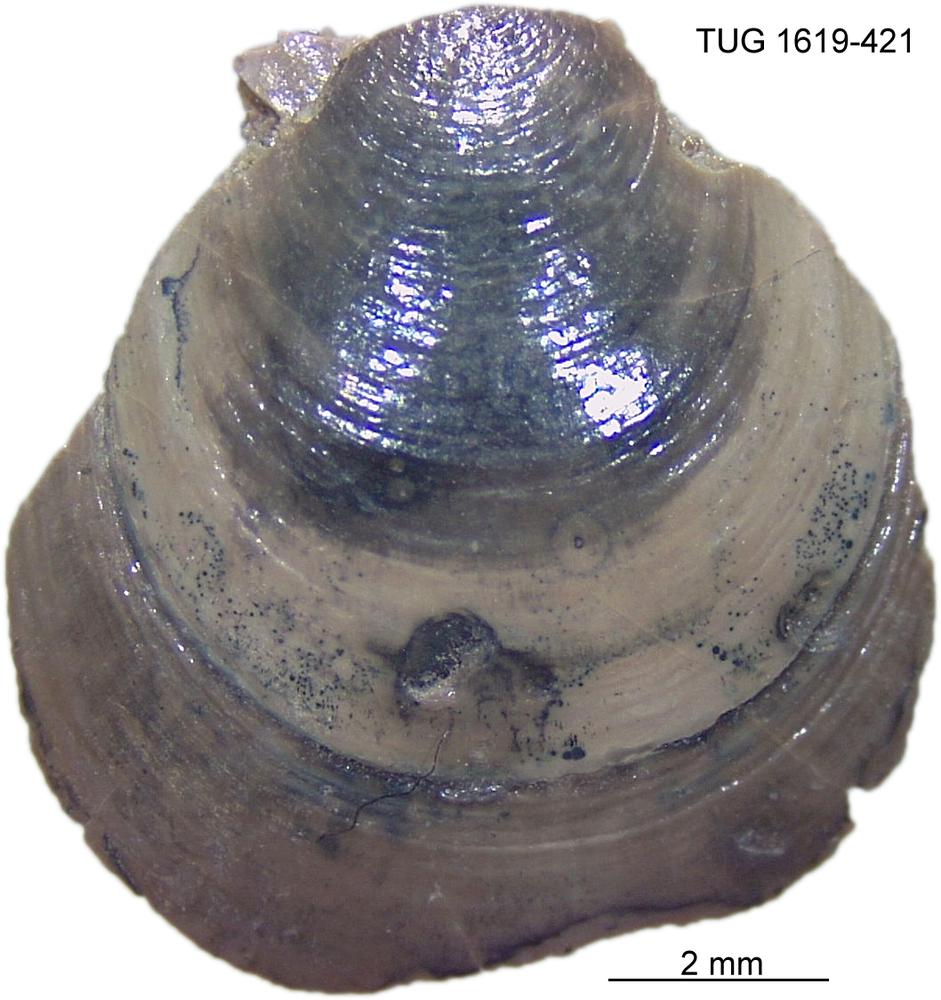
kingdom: Animalia
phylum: Porifera
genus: Ungula
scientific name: Ungula
